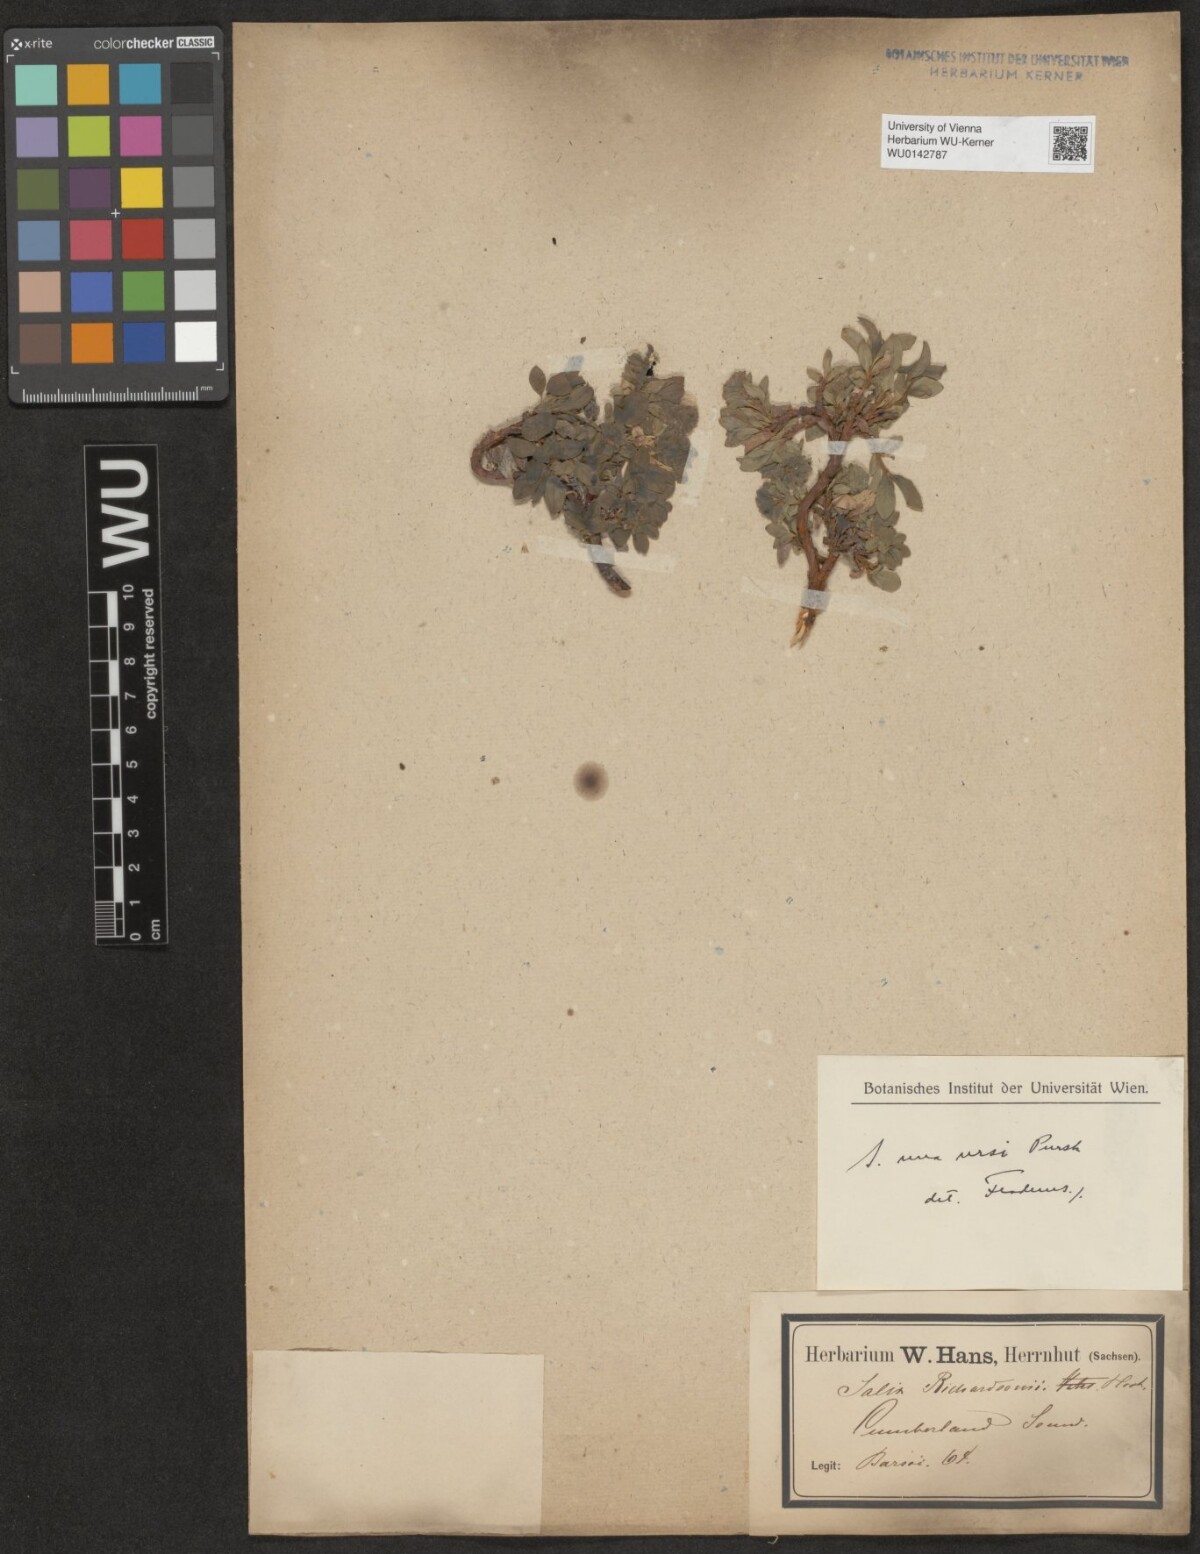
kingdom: Plantae
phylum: Tracheophyta
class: Magnoliopsida
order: Malpighiales
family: Salicaceae
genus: Salix
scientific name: Salix lanata
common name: Woolly willow
